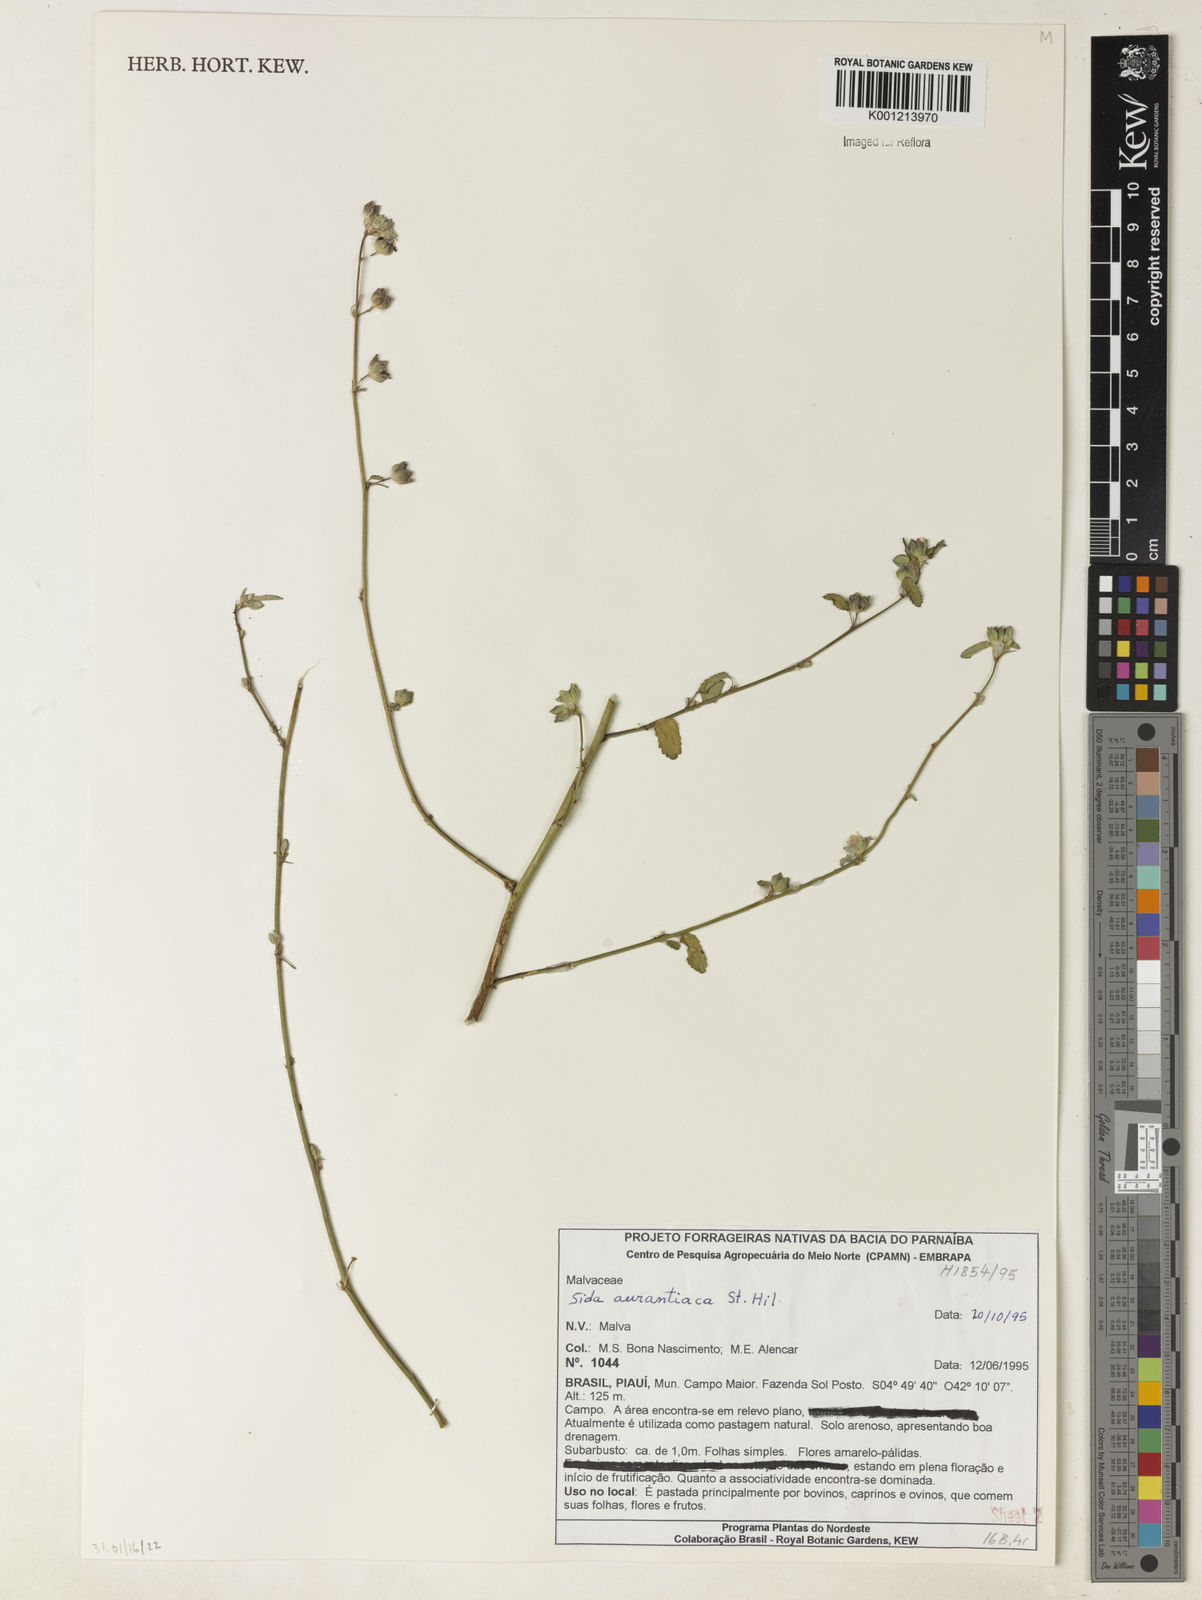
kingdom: Plantae
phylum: Tracheophyta
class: Magnoliopsida
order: Malvales
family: Malvaceae
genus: Sida
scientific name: Sida aurantiaca
